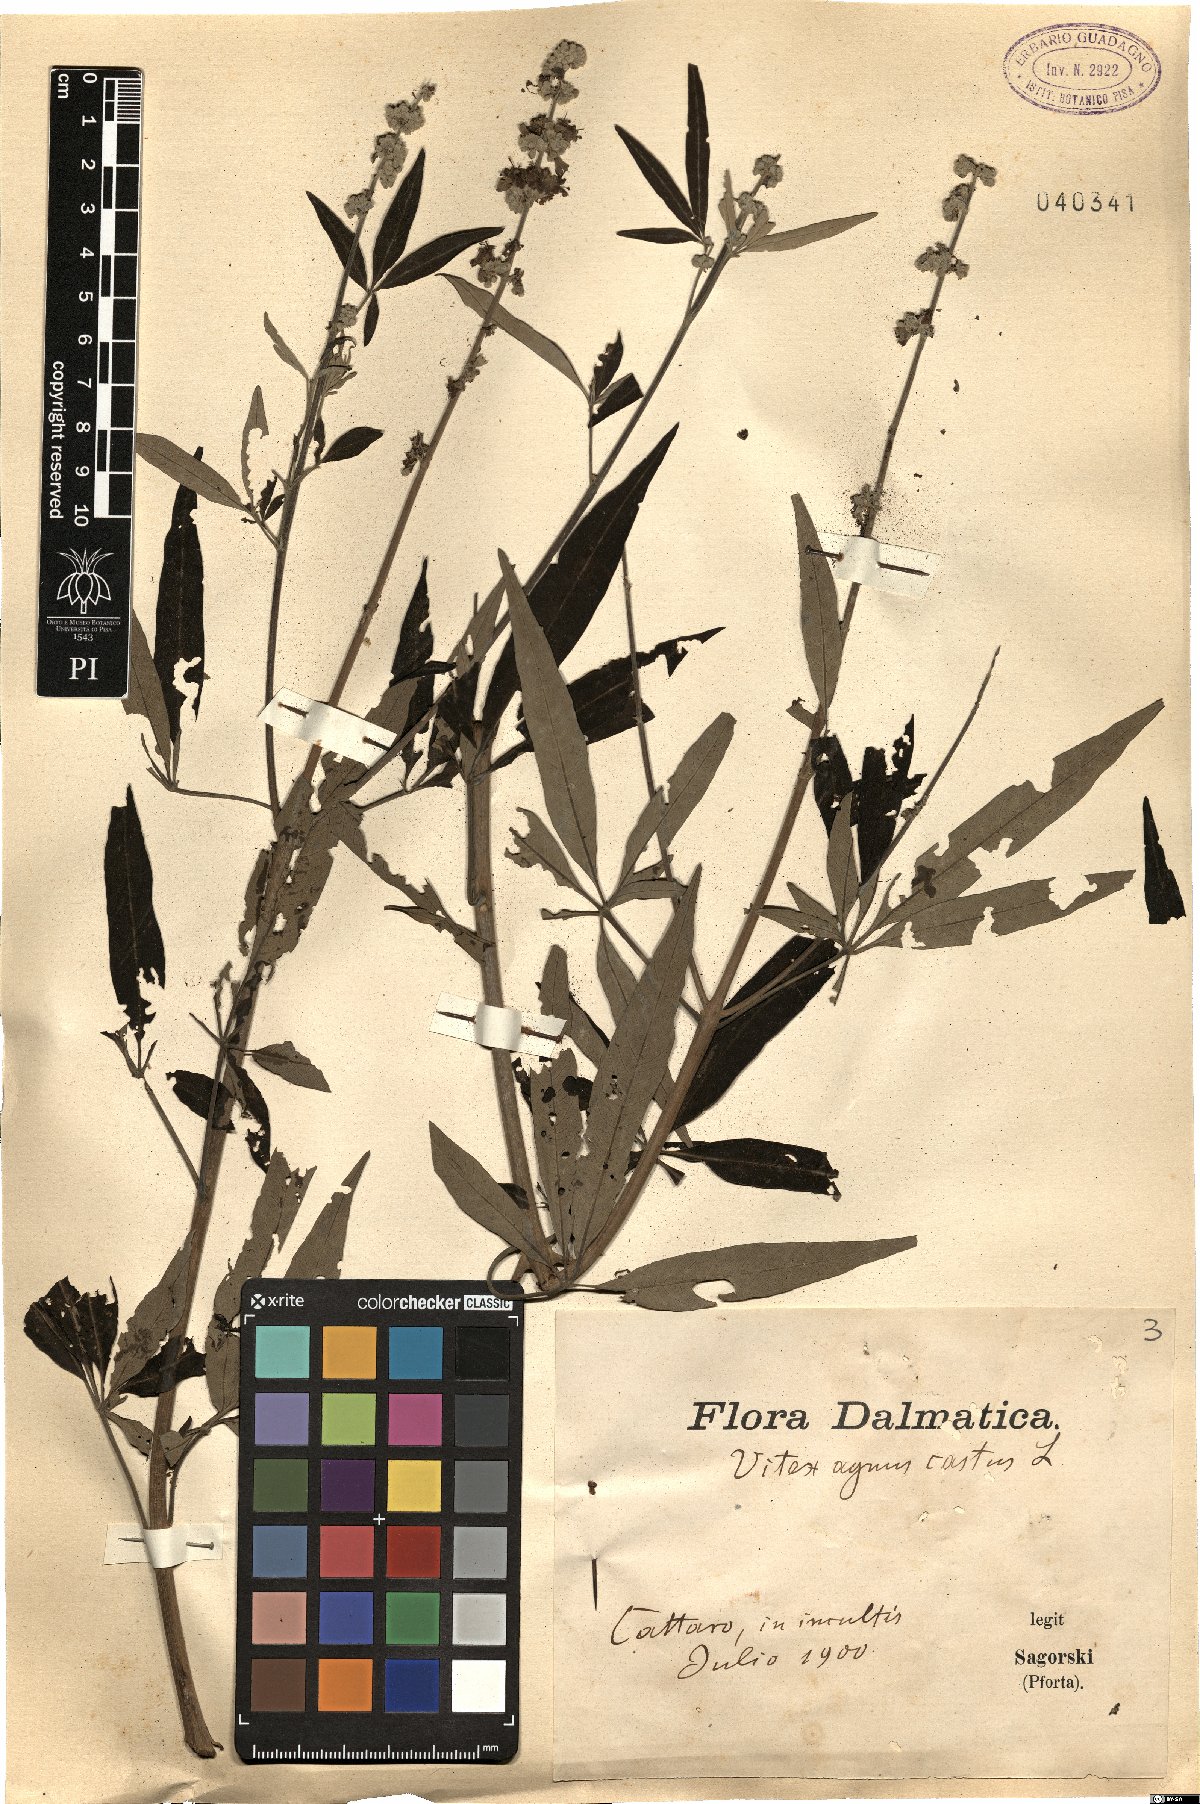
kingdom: Plantae
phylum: Tracheophyta
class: Magnoliopsida
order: Lamiales
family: Lamiaceae
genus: Vitex
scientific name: Vitex agnus-castus
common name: Chasteberry
